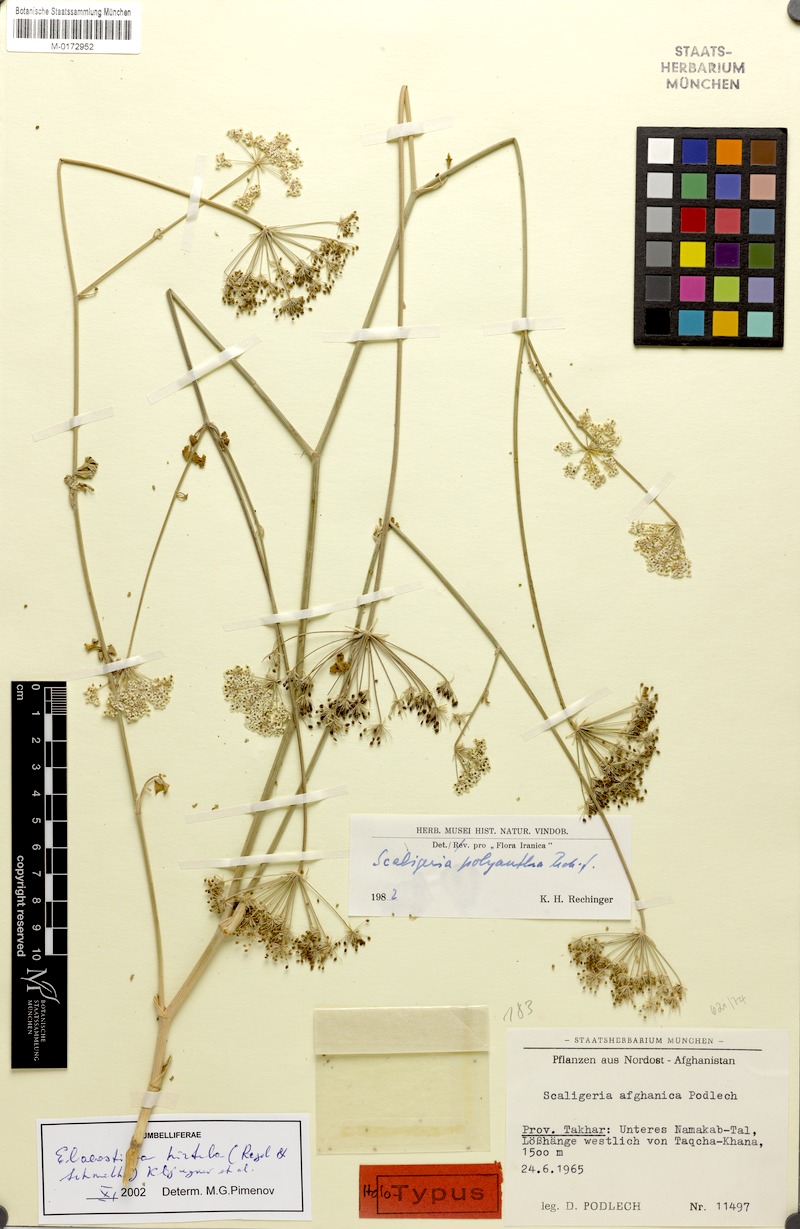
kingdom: Plantae
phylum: Tracheophyta
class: Magnoliopsida
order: Apiales
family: Apiaceae
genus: Scaligeria
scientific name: Scaligeria hirtula
